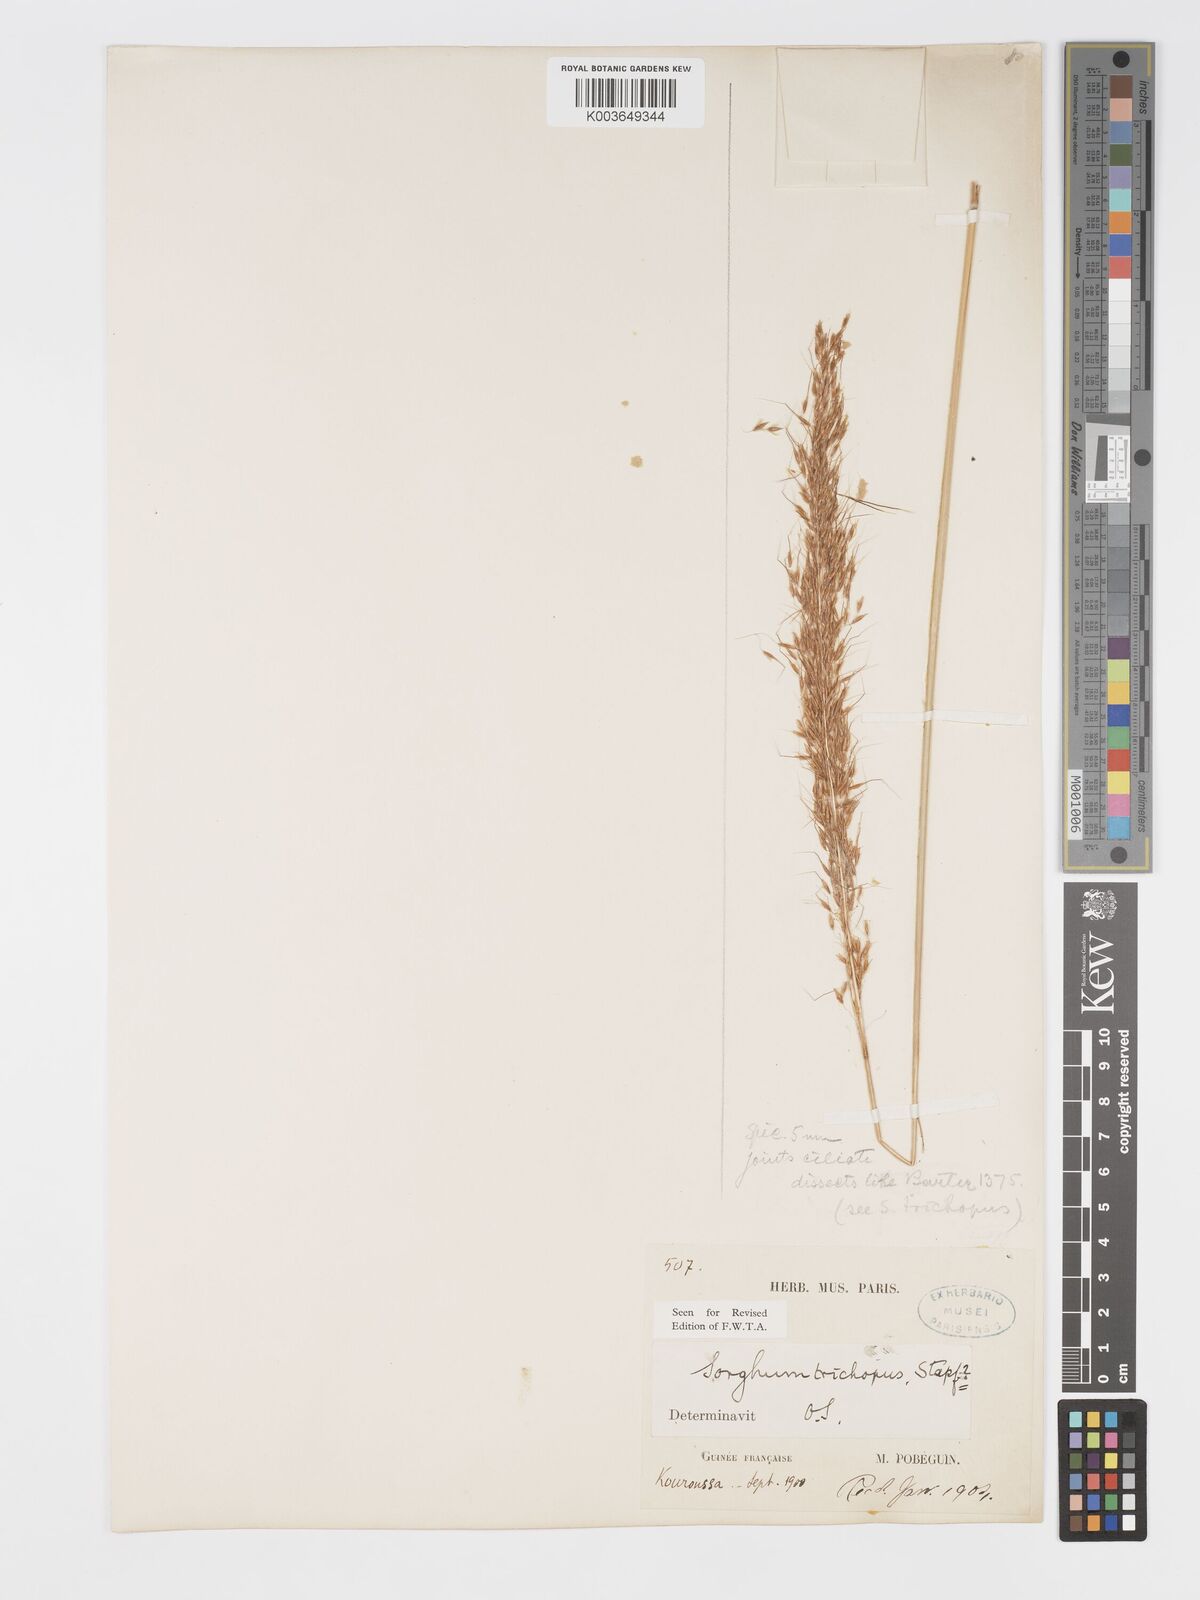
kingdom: Plantae
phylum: Tracheophyta
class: Liliopsida
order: Poales
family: Poaceae
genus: Sorghastrum
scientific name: Sorghastrum stipoides
